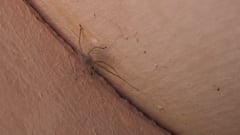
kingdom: Animalia
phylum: Arthropoda
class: Arachnida
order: Araneae
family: Cheiracanthiidae
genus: Cheiracanthium
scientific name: Cheiracanthium mildei
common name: Northern yellow sac spider
